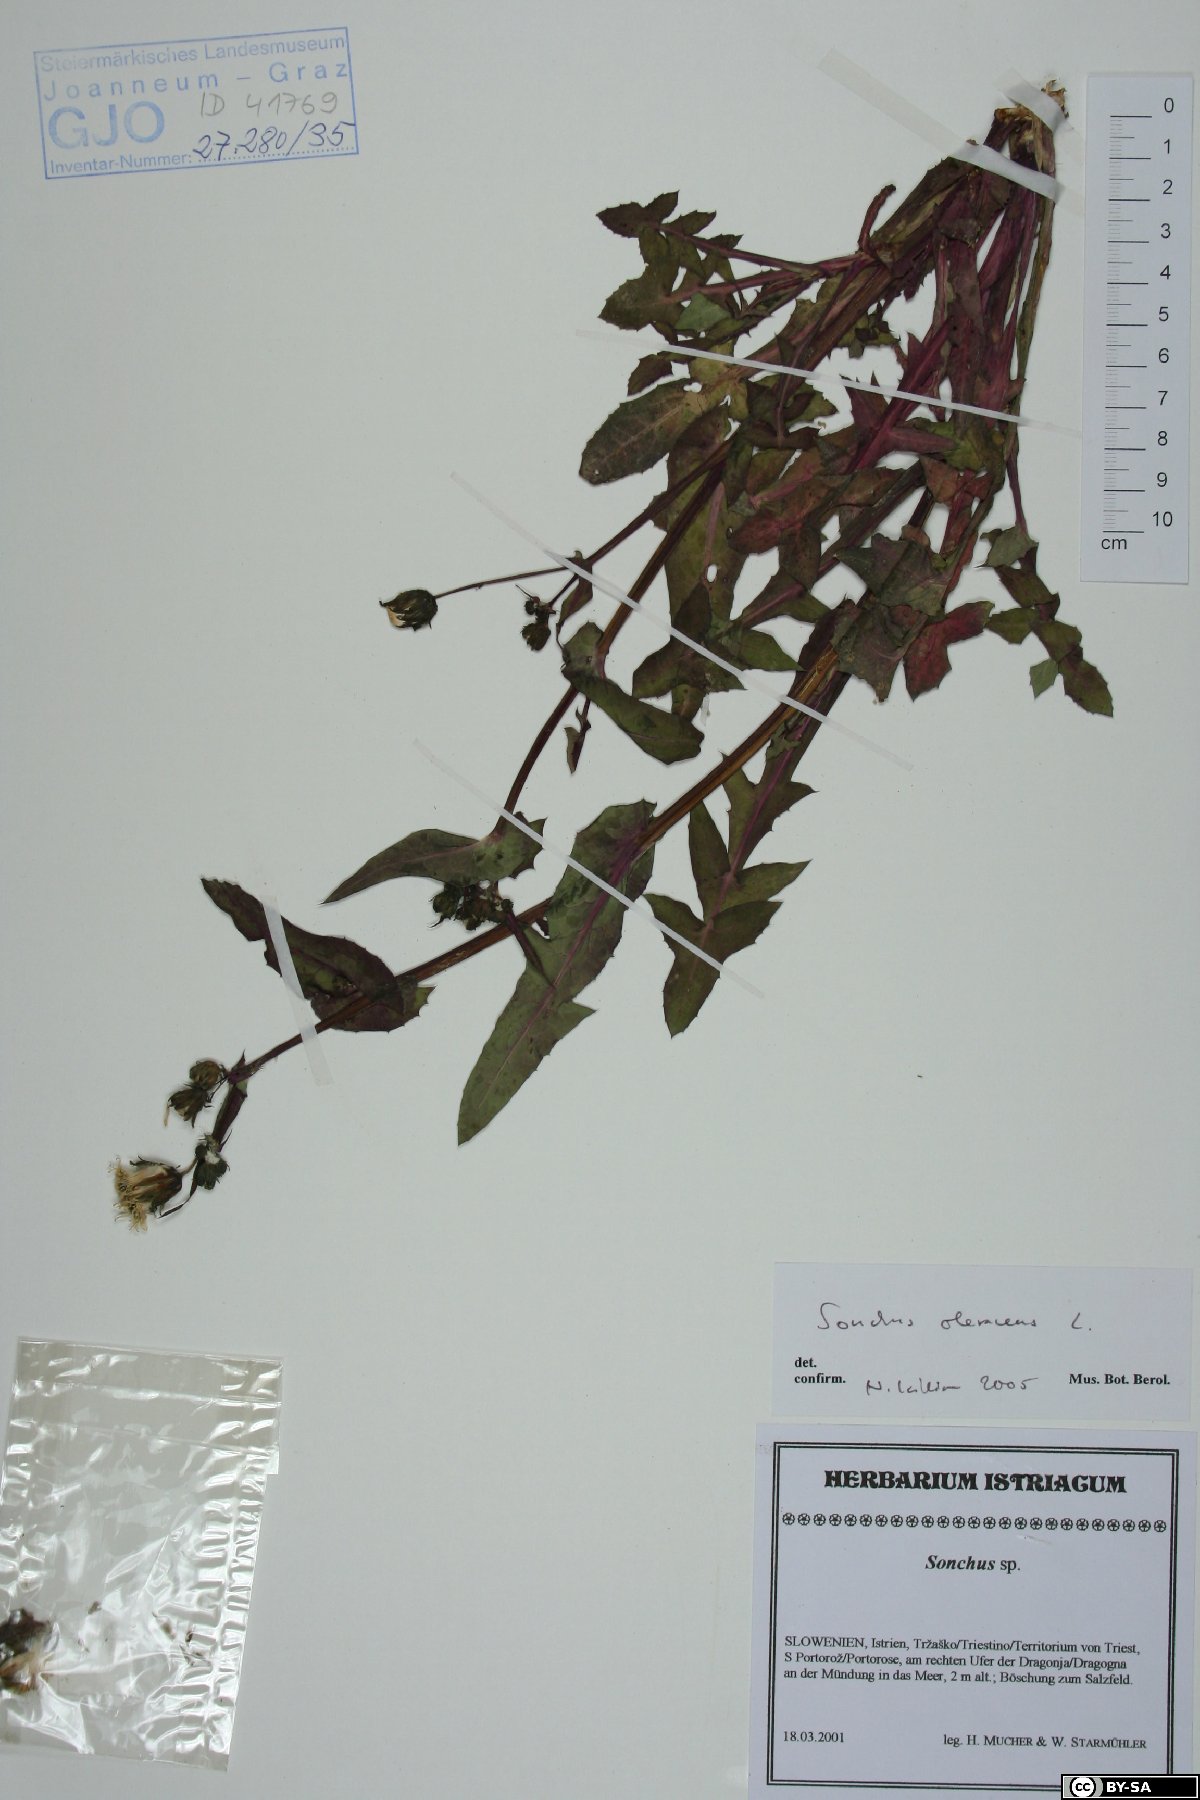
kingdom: Plantae
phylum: Tracheophyta
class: Magnoliopsida
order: Asterales
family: Asteraceae
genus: Sonchus
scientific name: Sonchus oleraceus
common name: Common sowthistle
